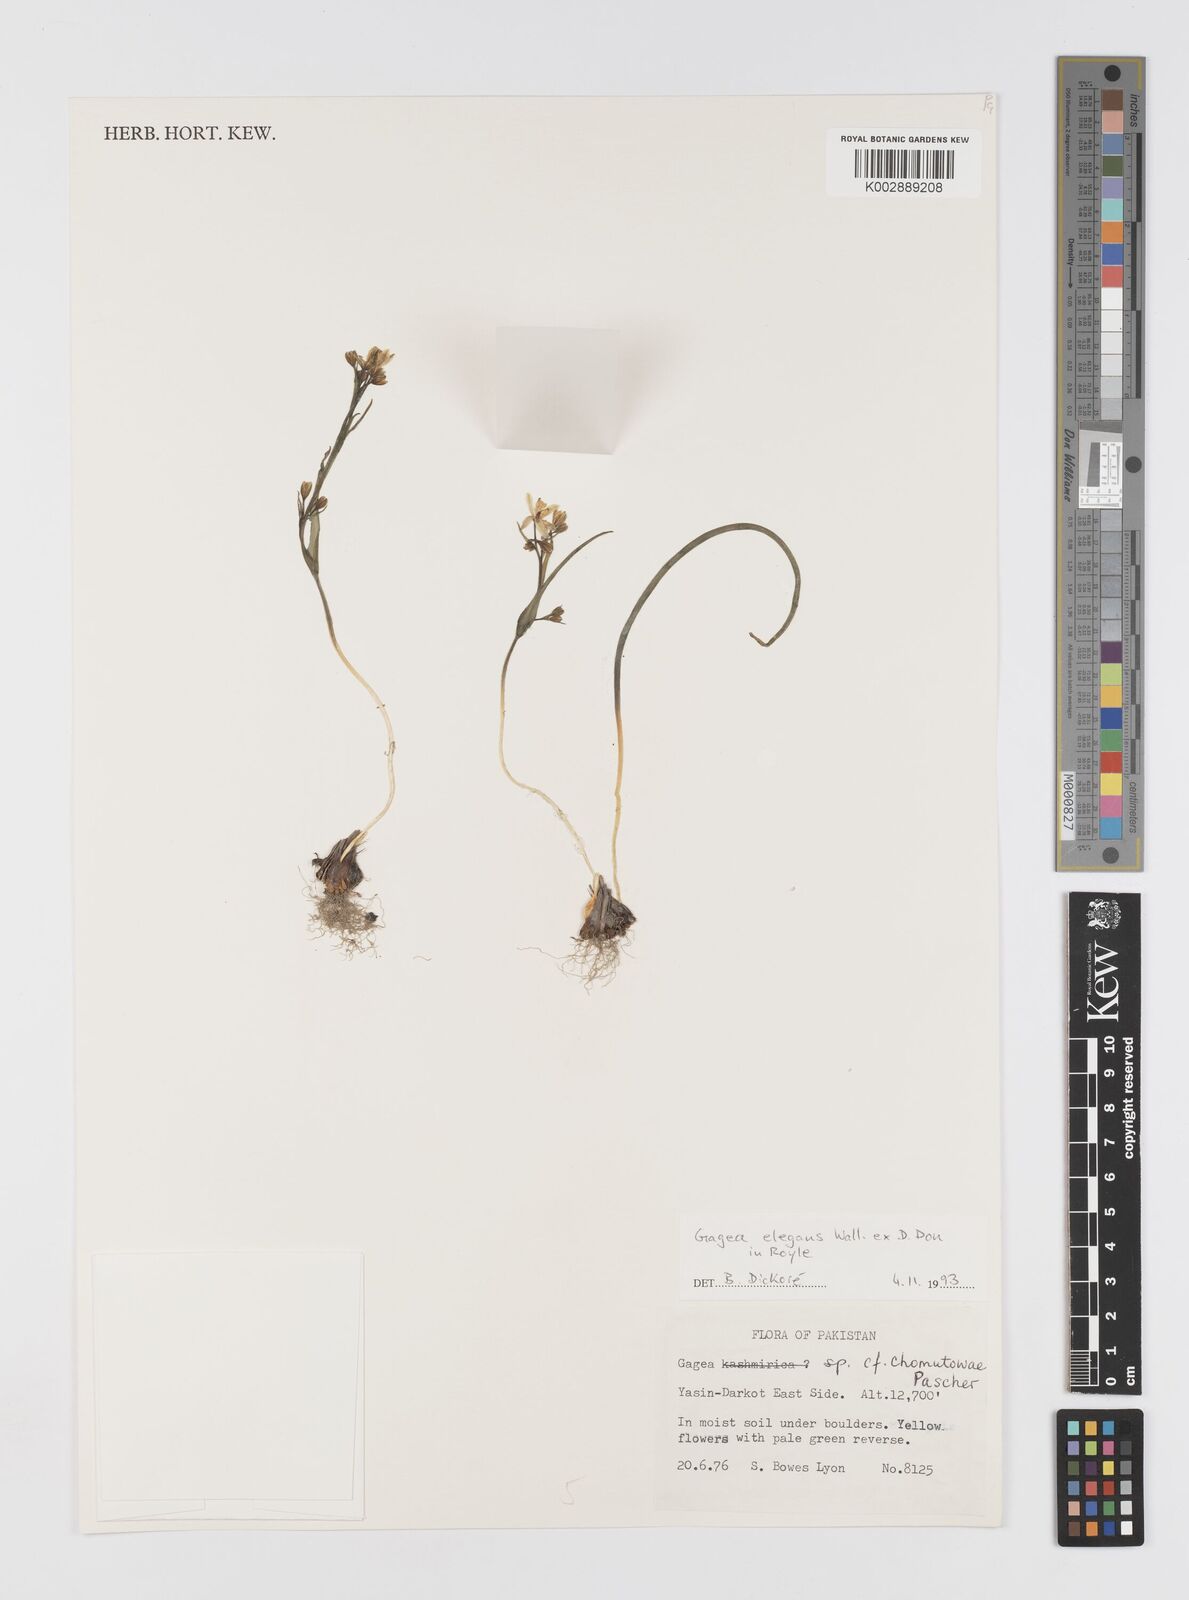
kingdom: Plantae
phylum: Tracheophyta
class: Liliopsida
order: Liliales
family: Liliaceae
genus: Gagea
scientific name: Gagea lutea
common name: Yellow star-of-bethlehem
